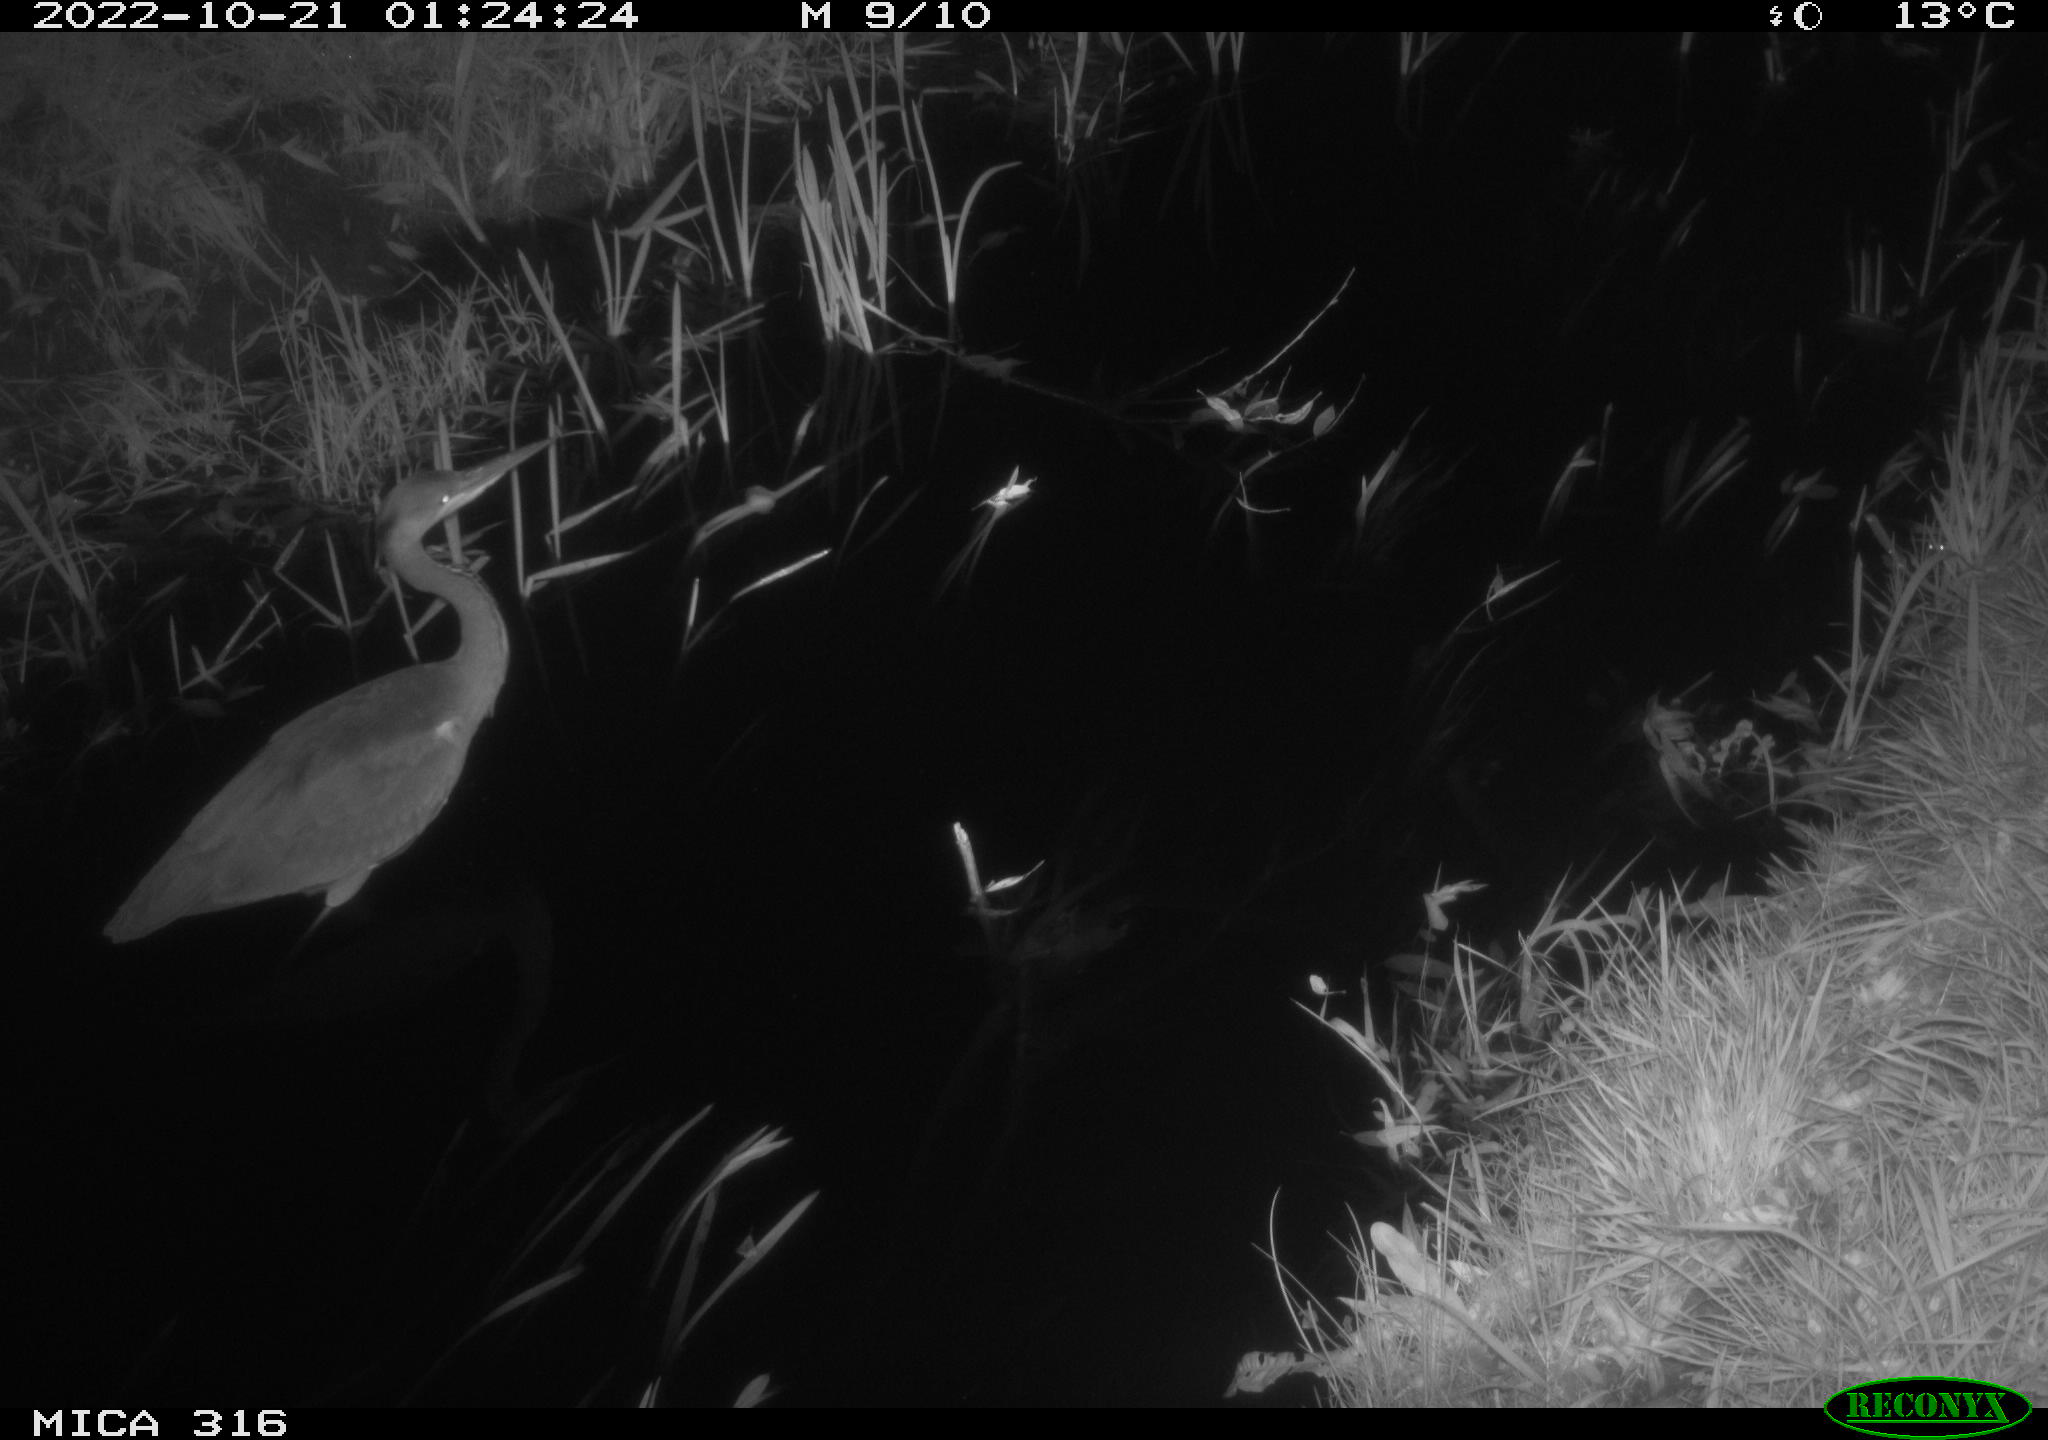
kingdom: Animalia
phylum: Chordata
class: Aves
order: Pelecaniformes
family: Ardeidae
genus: Ardea
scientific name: Ardea cinerea
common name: Grey heron
